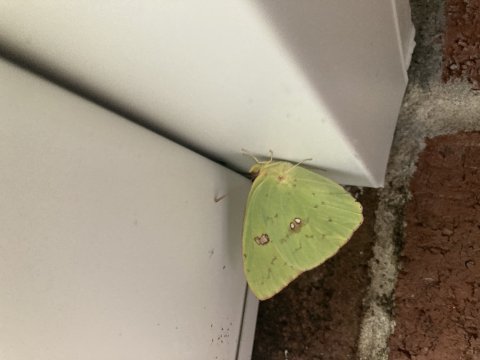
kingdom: Animalia
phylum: Arthropoda
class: Insecta
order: Lepidoptera
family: Pieridae
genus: Phoebis
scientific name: Phoebis sennae
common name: Cloudless Sulphur
